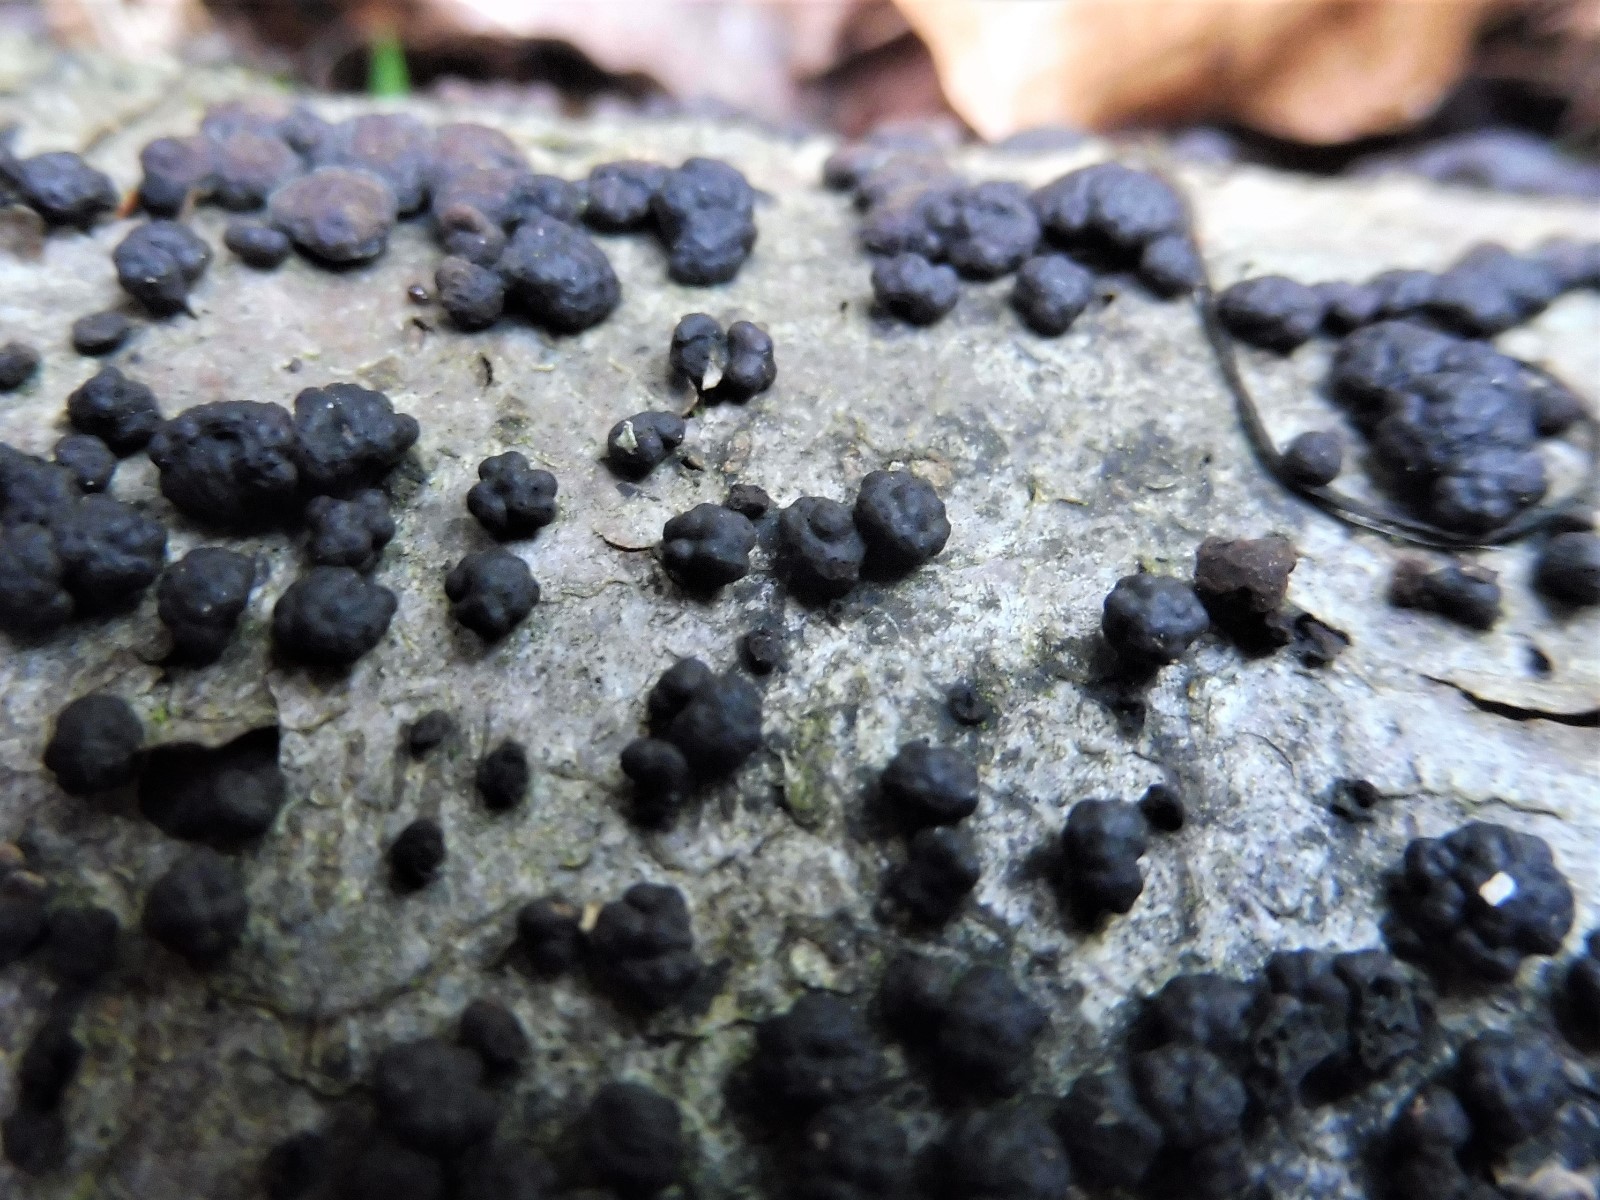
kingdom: Fungi
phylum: Ascomycota
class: Sordariomycetes
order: Xylariales
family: Hypoxylaceae
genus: Jackrogersella
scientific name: Jackrogersella cohaerens
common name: sammenflydende kulbær
